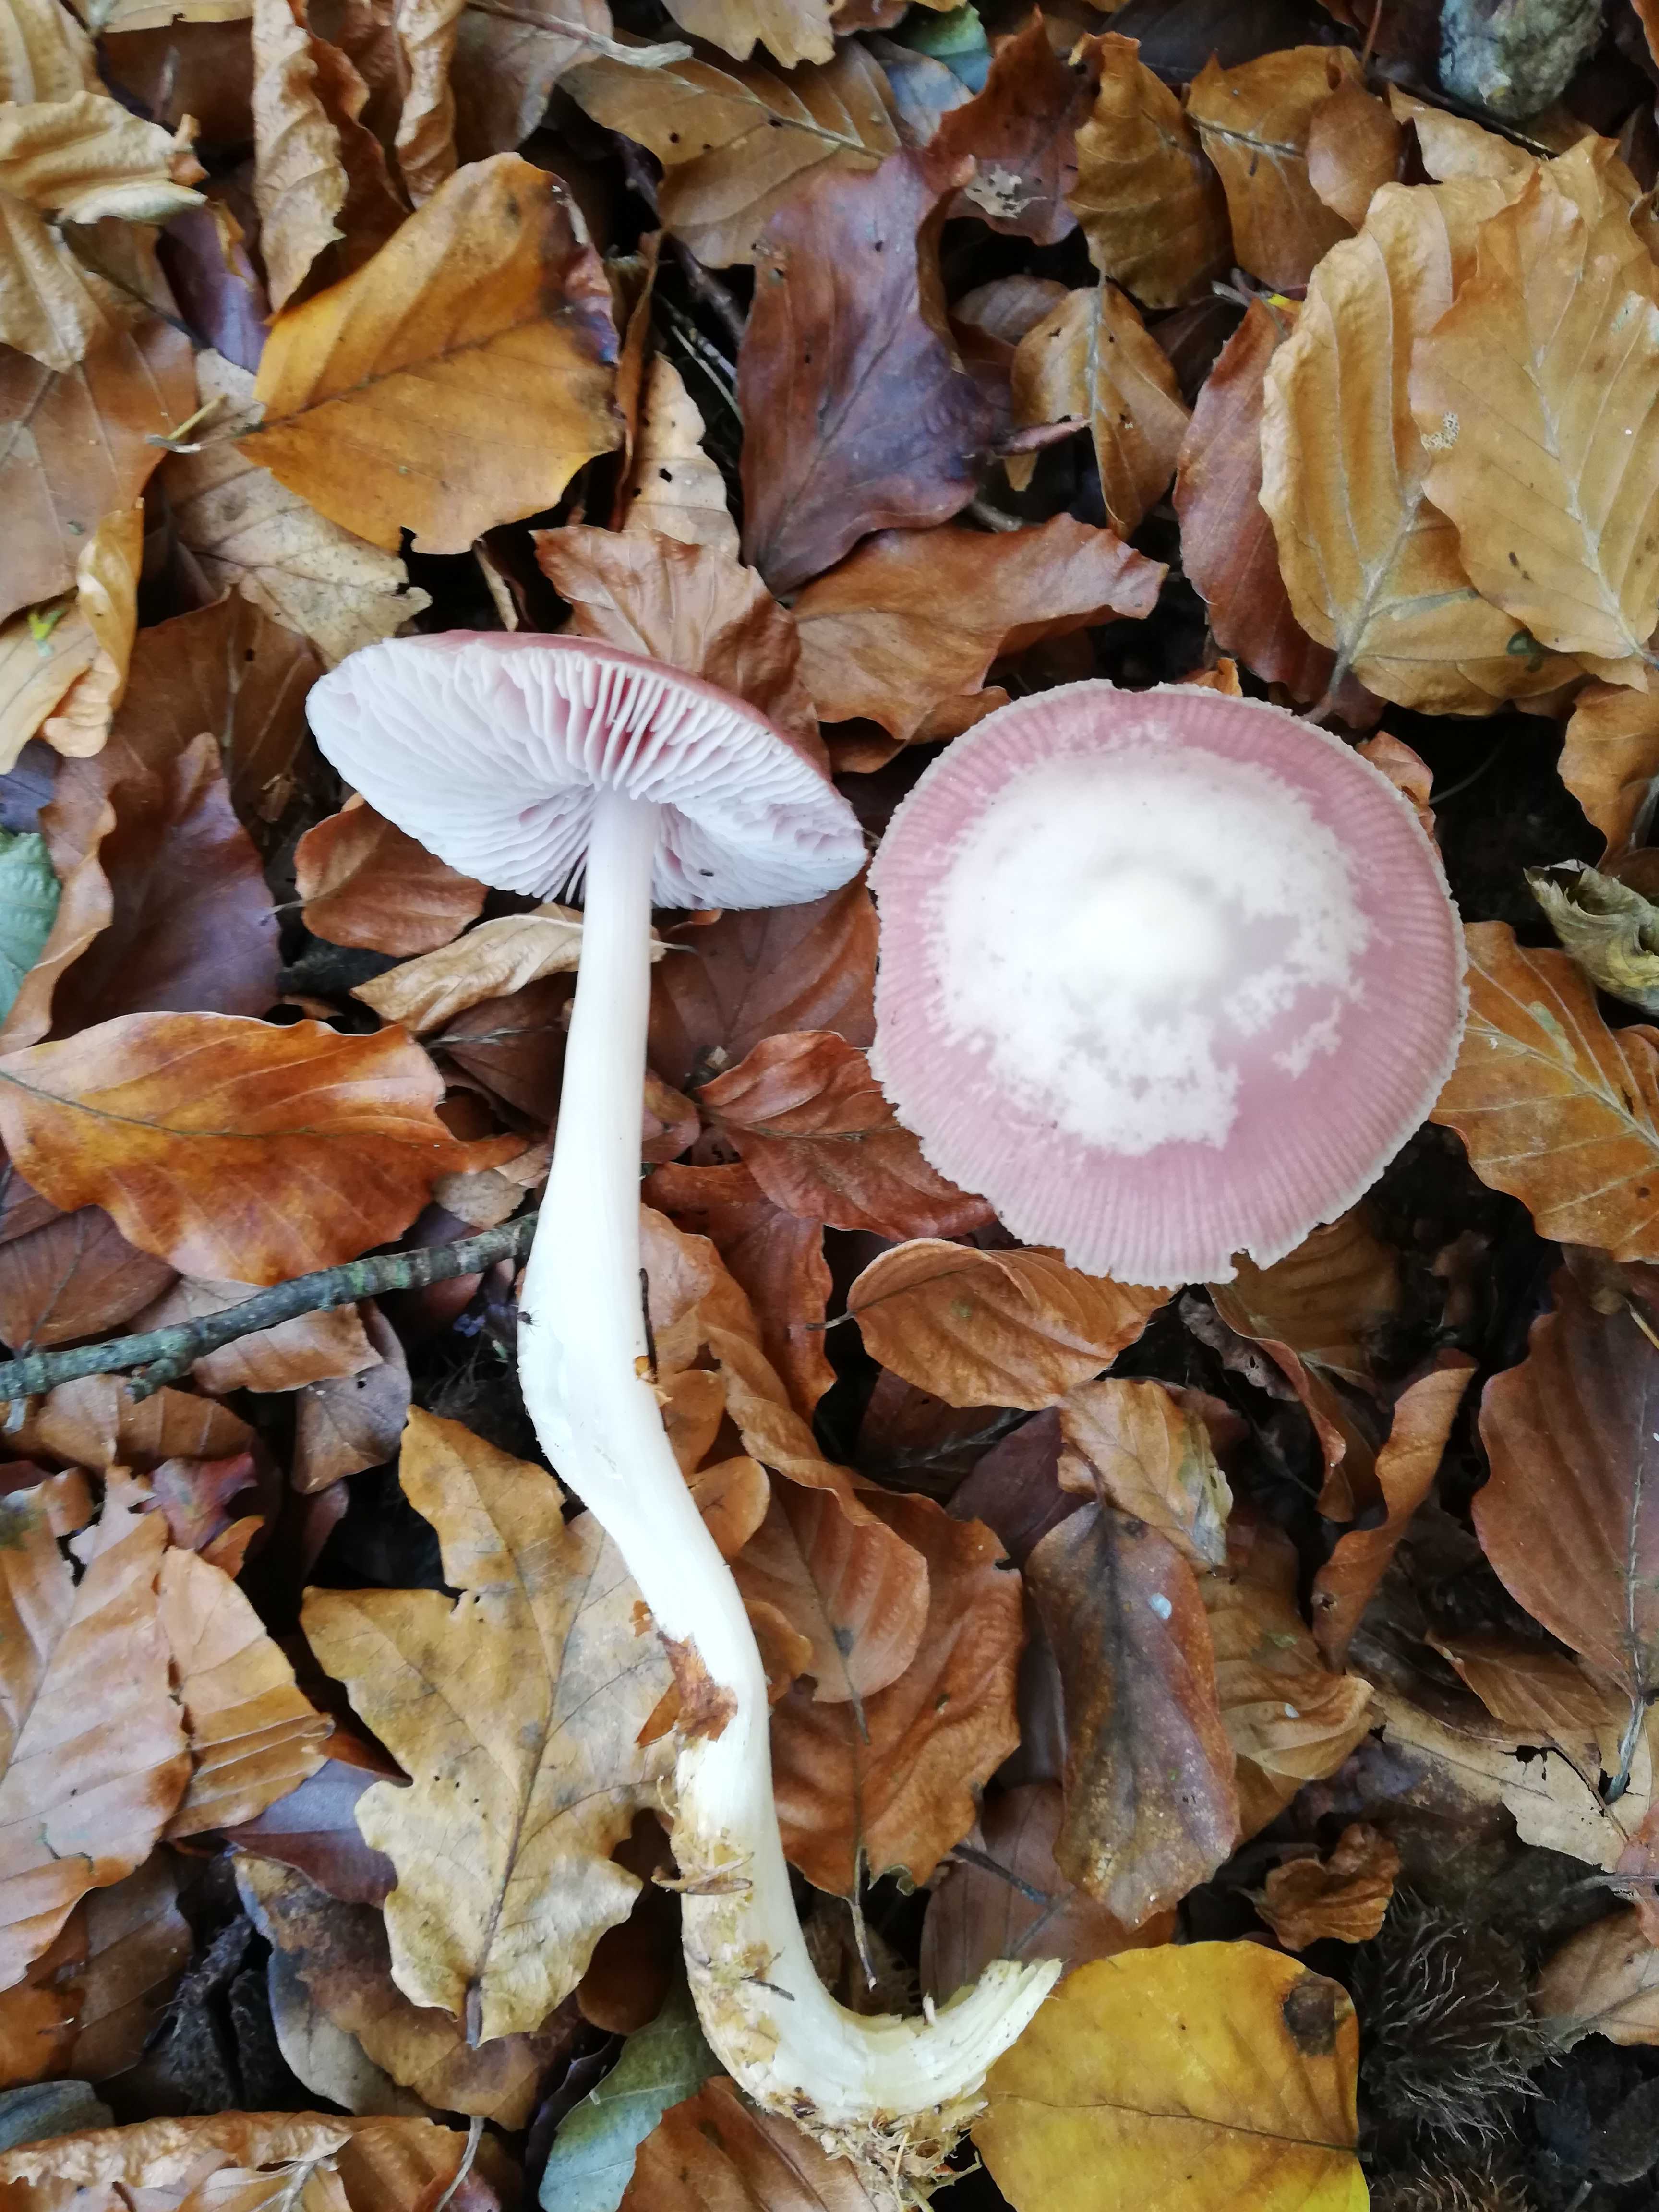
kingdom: Fungi
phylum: Basidiomycota
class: Agaricomycetes
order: Agaricales
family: Mycenaceae
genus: Mycena
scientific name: Mycena rosea
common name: rosa huesvamp
